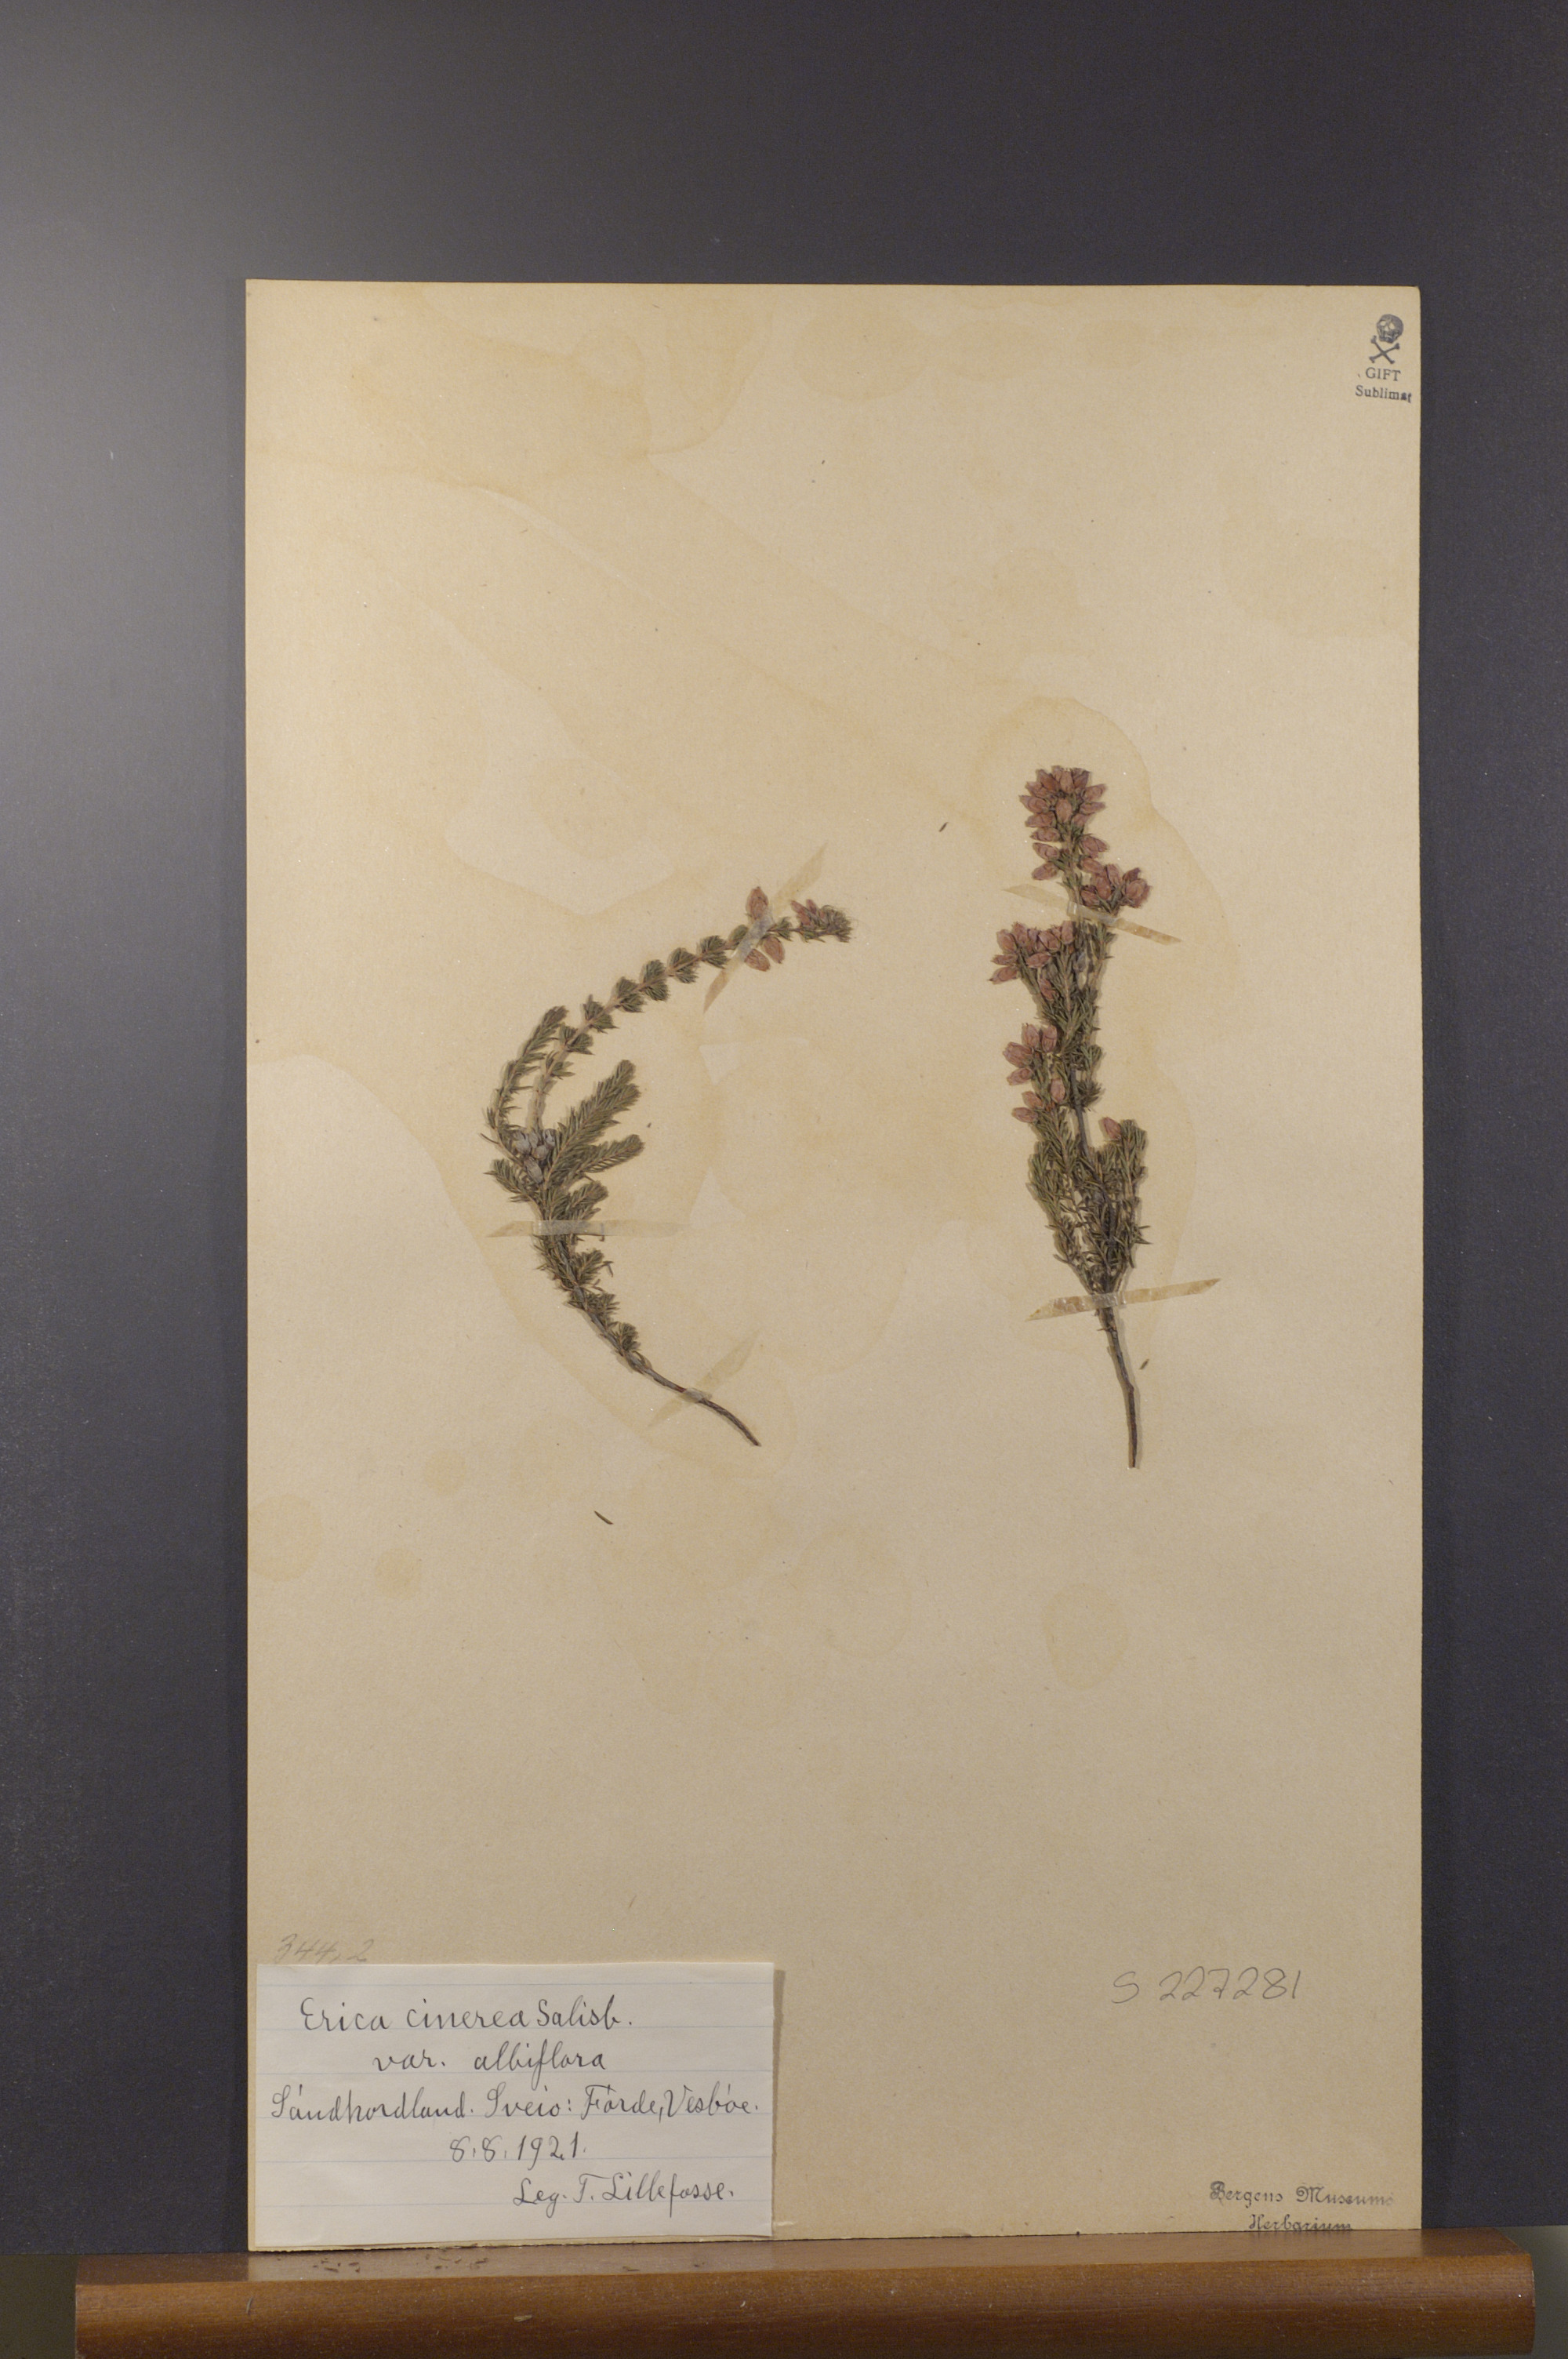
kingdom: Plantae
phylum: Tracheophyta
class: Magnoliopsida
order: Ericales
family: Ericaceae
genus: Erica
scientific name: Erica cinerea
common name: Bell heather
